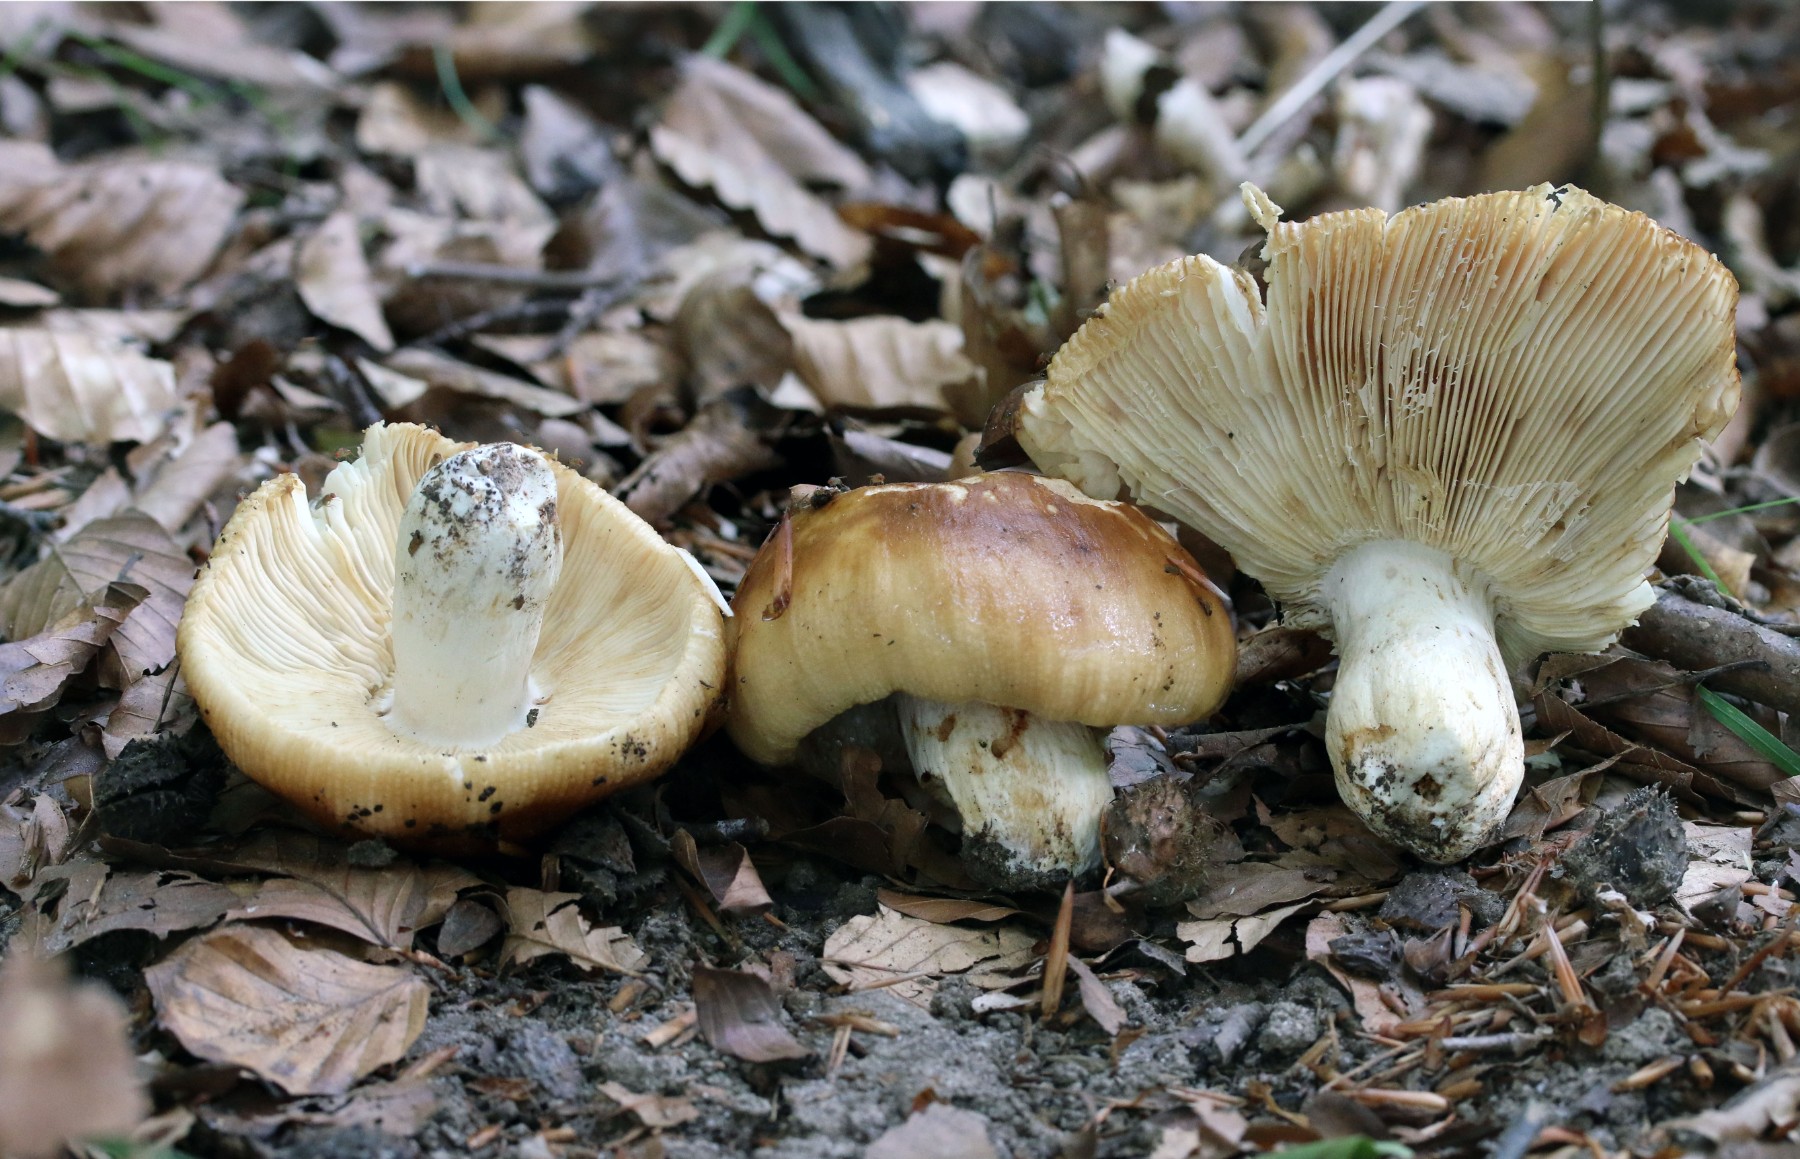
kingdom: Fungi
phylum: Basidiomycota
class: Agaricomycetes
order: Russulales
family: Russulaceae
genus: Russula
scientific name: Russula foetens
